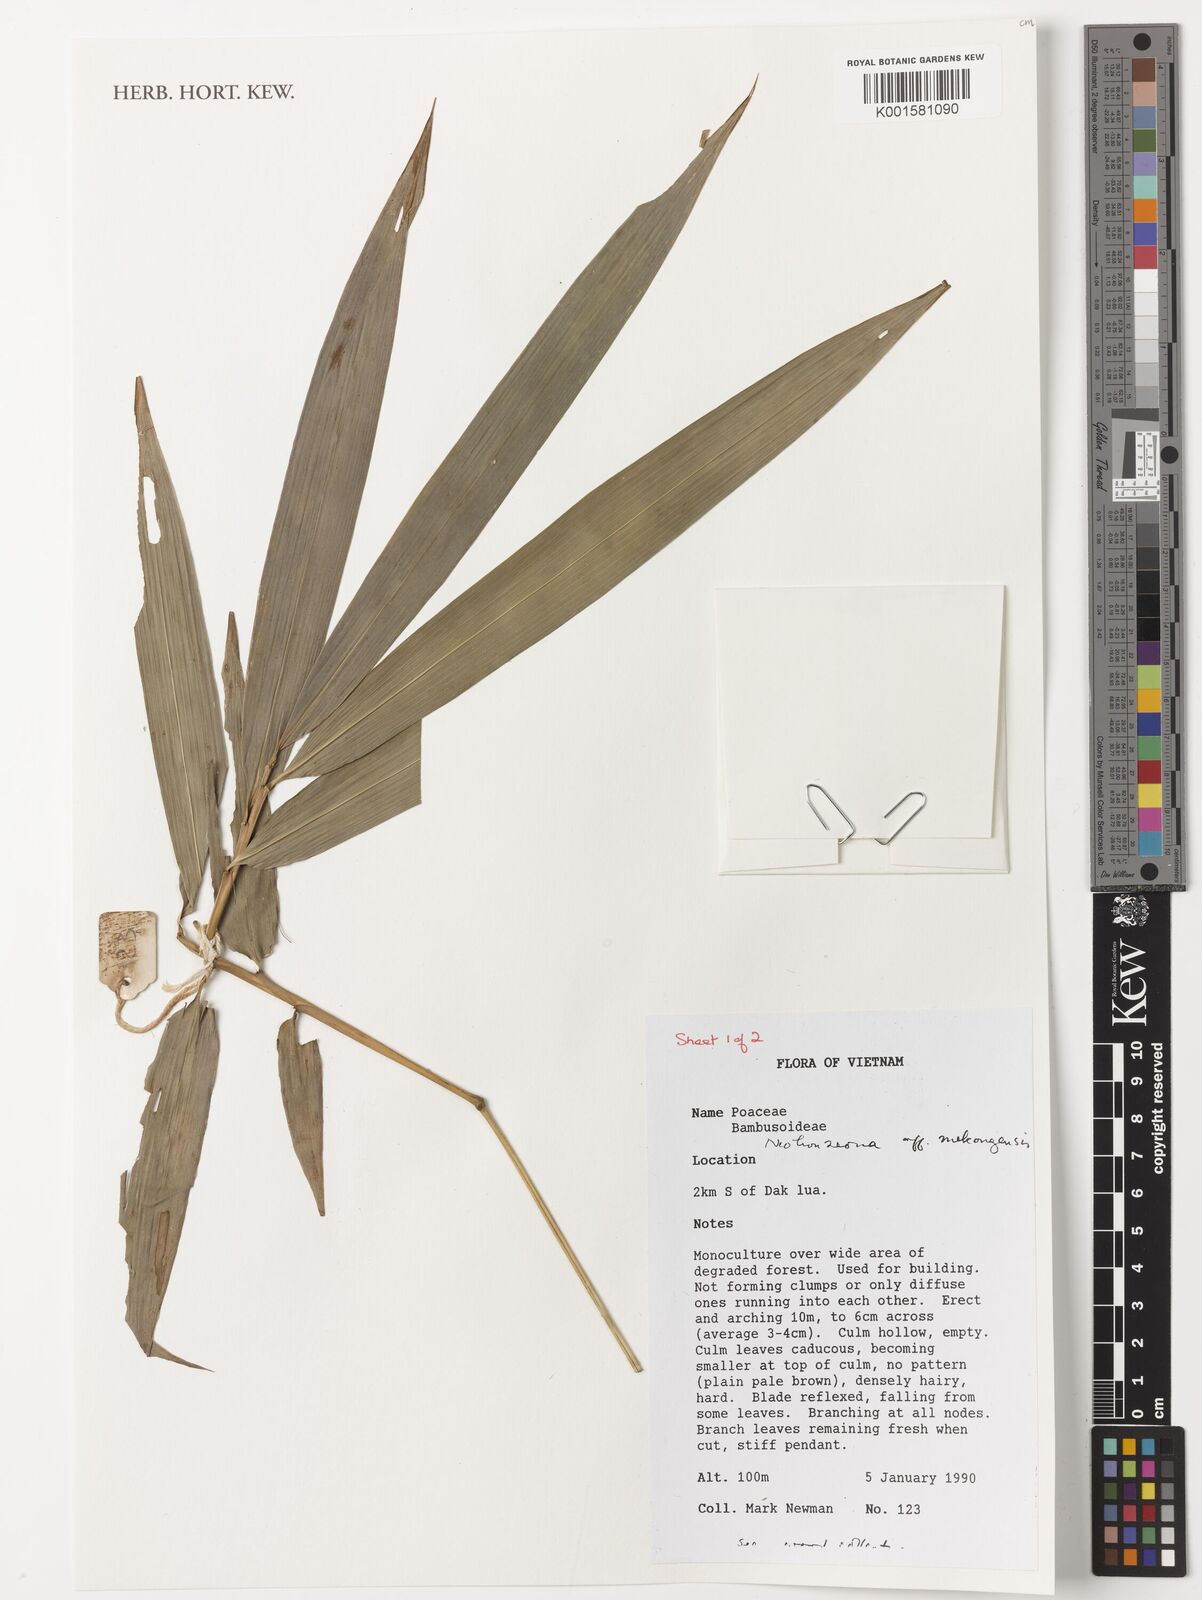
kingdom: Plantae
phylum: Tracheophyta
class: Liliopsida
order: Poales
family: Poaceae
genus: Schizostachyum
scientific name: Schizostachyum mekongensis
